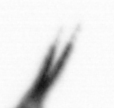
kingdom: Chromista
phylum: Ochrophyta
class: Bacillariophyceae
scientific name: Bacillariophyceae
